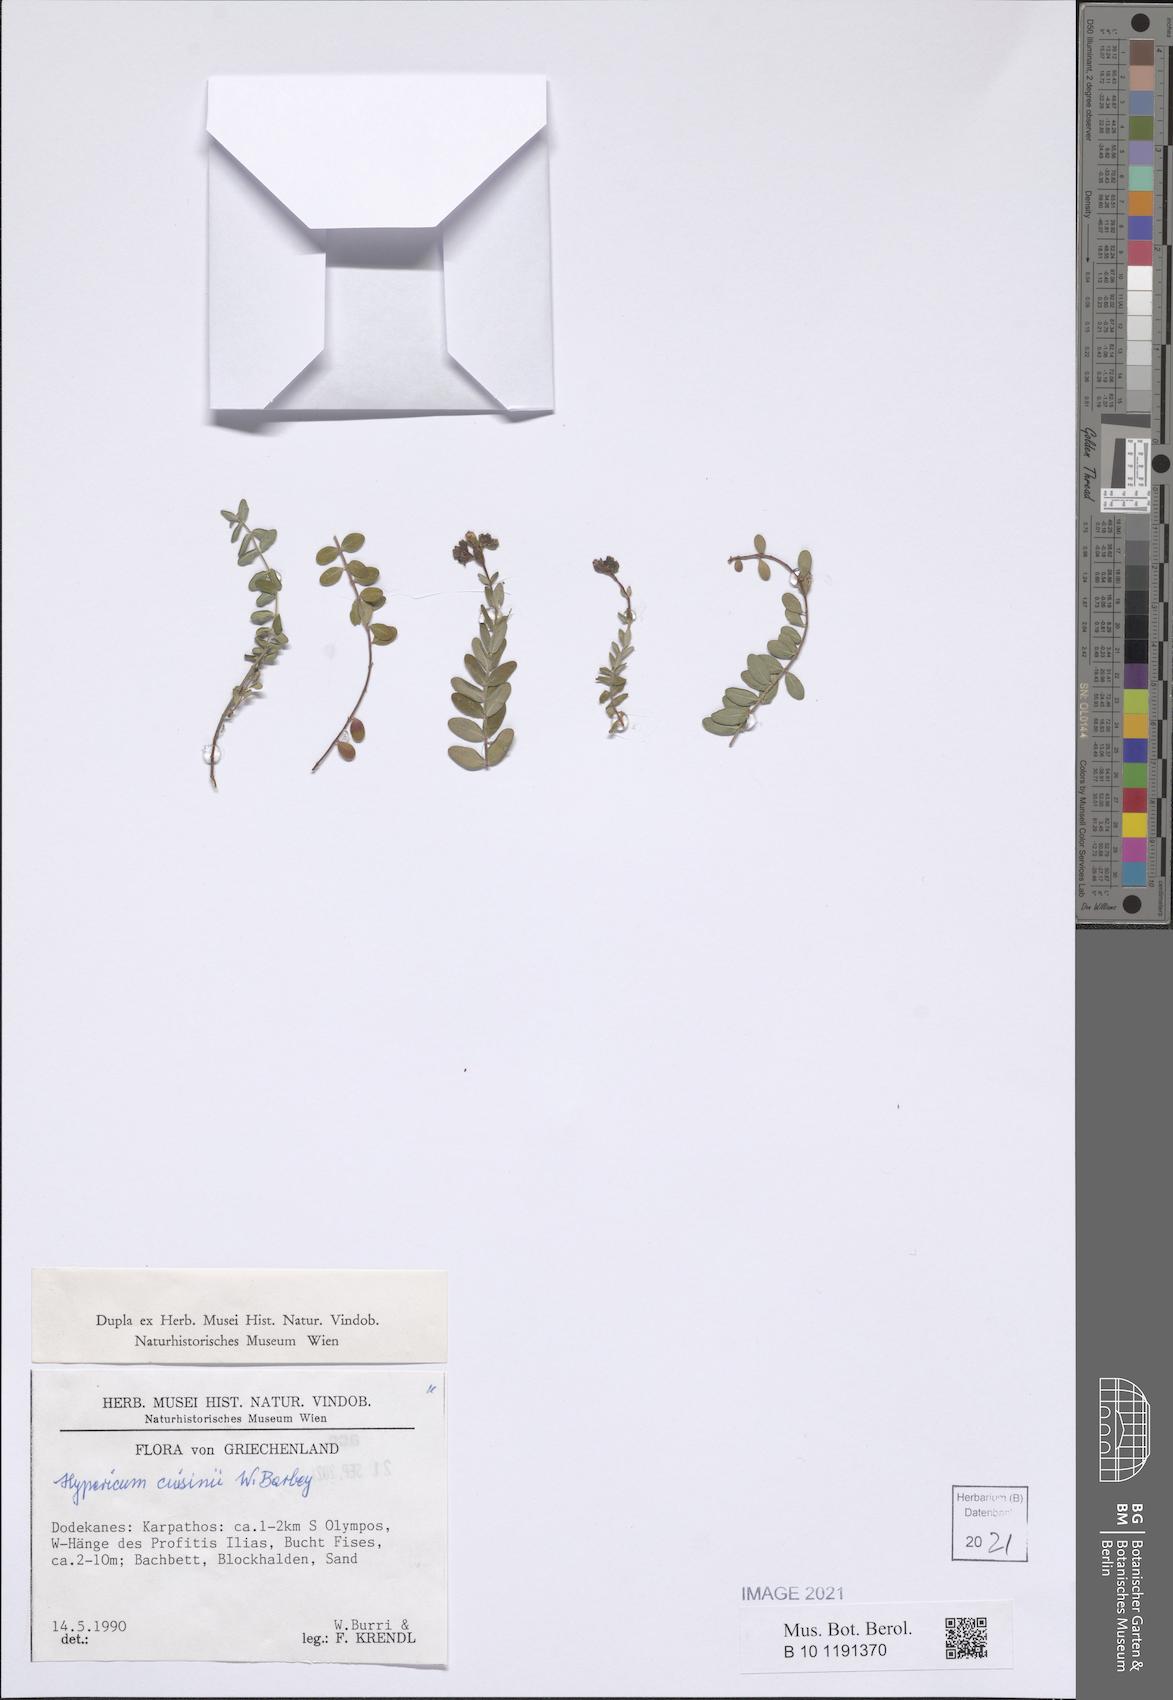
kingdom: Plantae
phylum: Tracheophyta
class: Magnoliopsida
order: Malpighiales
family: Hypericaceae
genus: Hypericum
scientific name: Hypericum cuisinii
